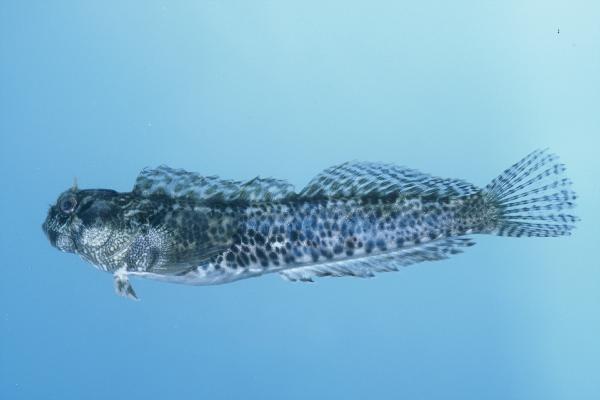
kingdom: Animalia
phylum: Chordata
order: Perciformes
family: Blenniidae
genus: Entomacrodus
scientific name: Entomacrodus striatus
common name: Pearly rockskipper
